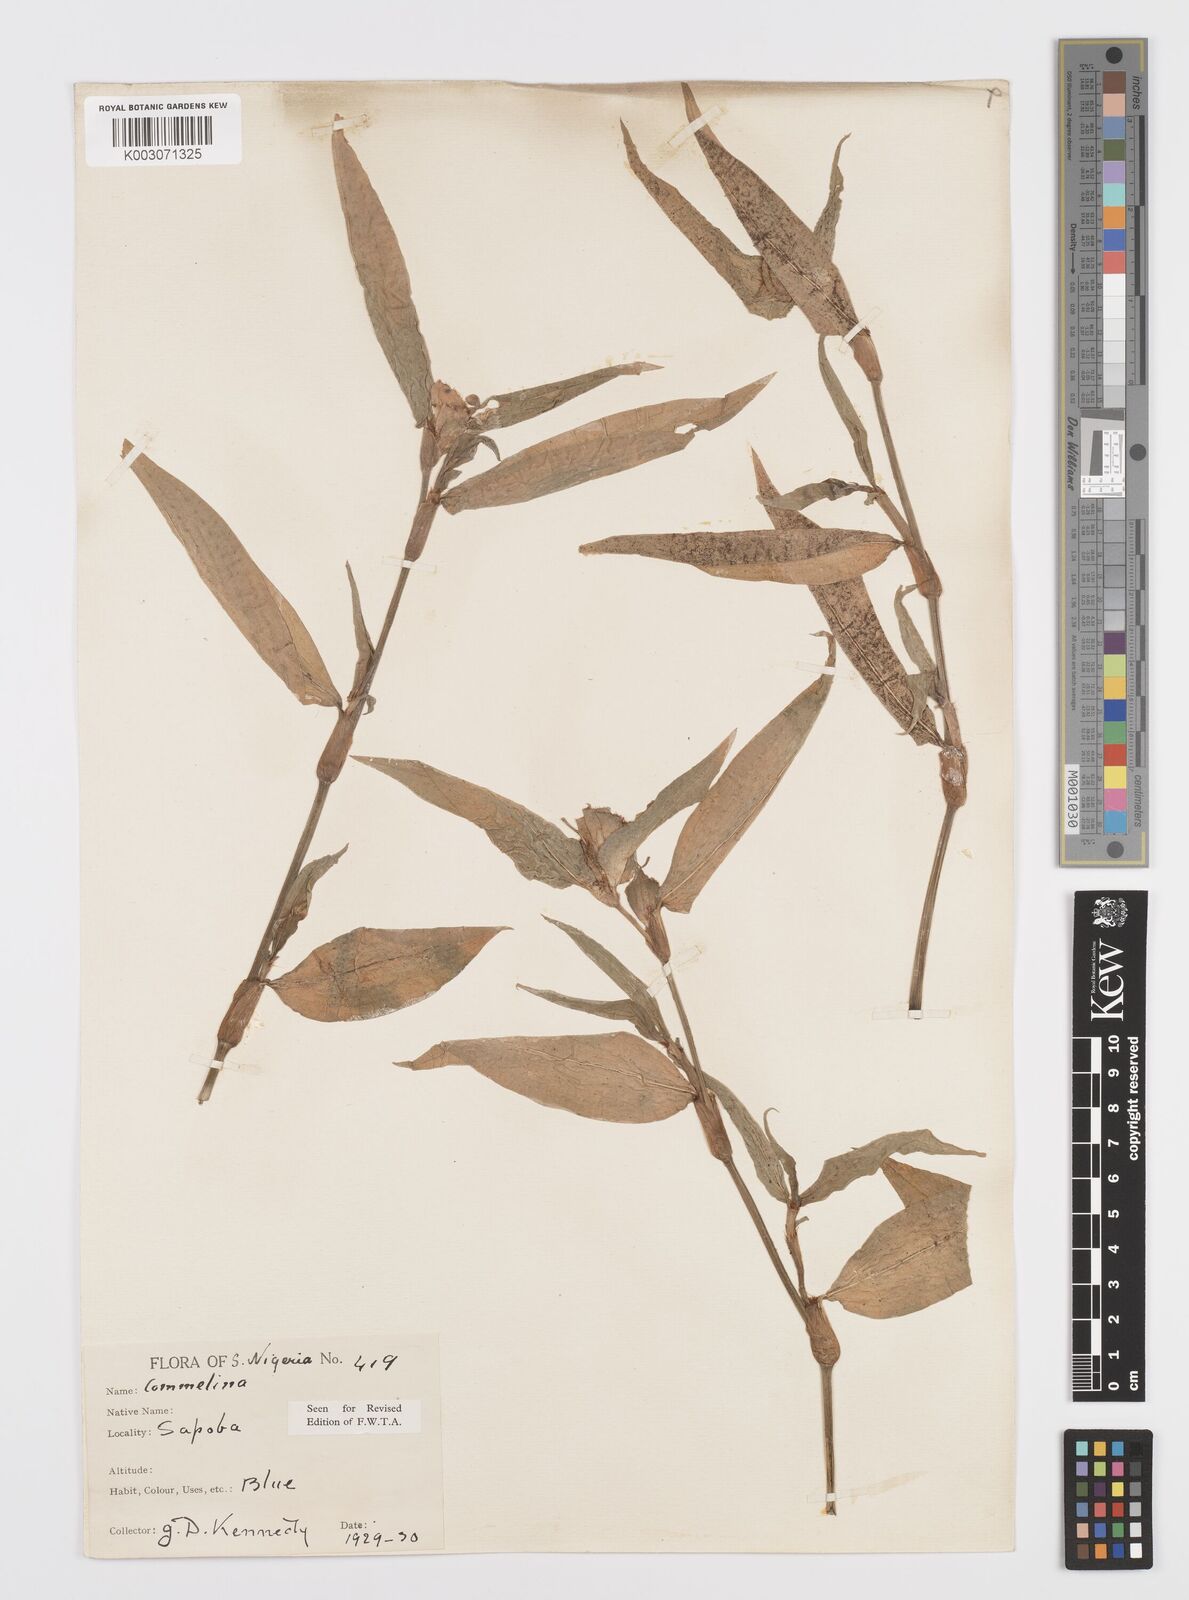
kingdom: Plantae
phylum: Tracheophyta
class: Liliopsida
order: Commelinales
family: Commelinaceae
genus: Commelina
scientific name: Commelina capitata
